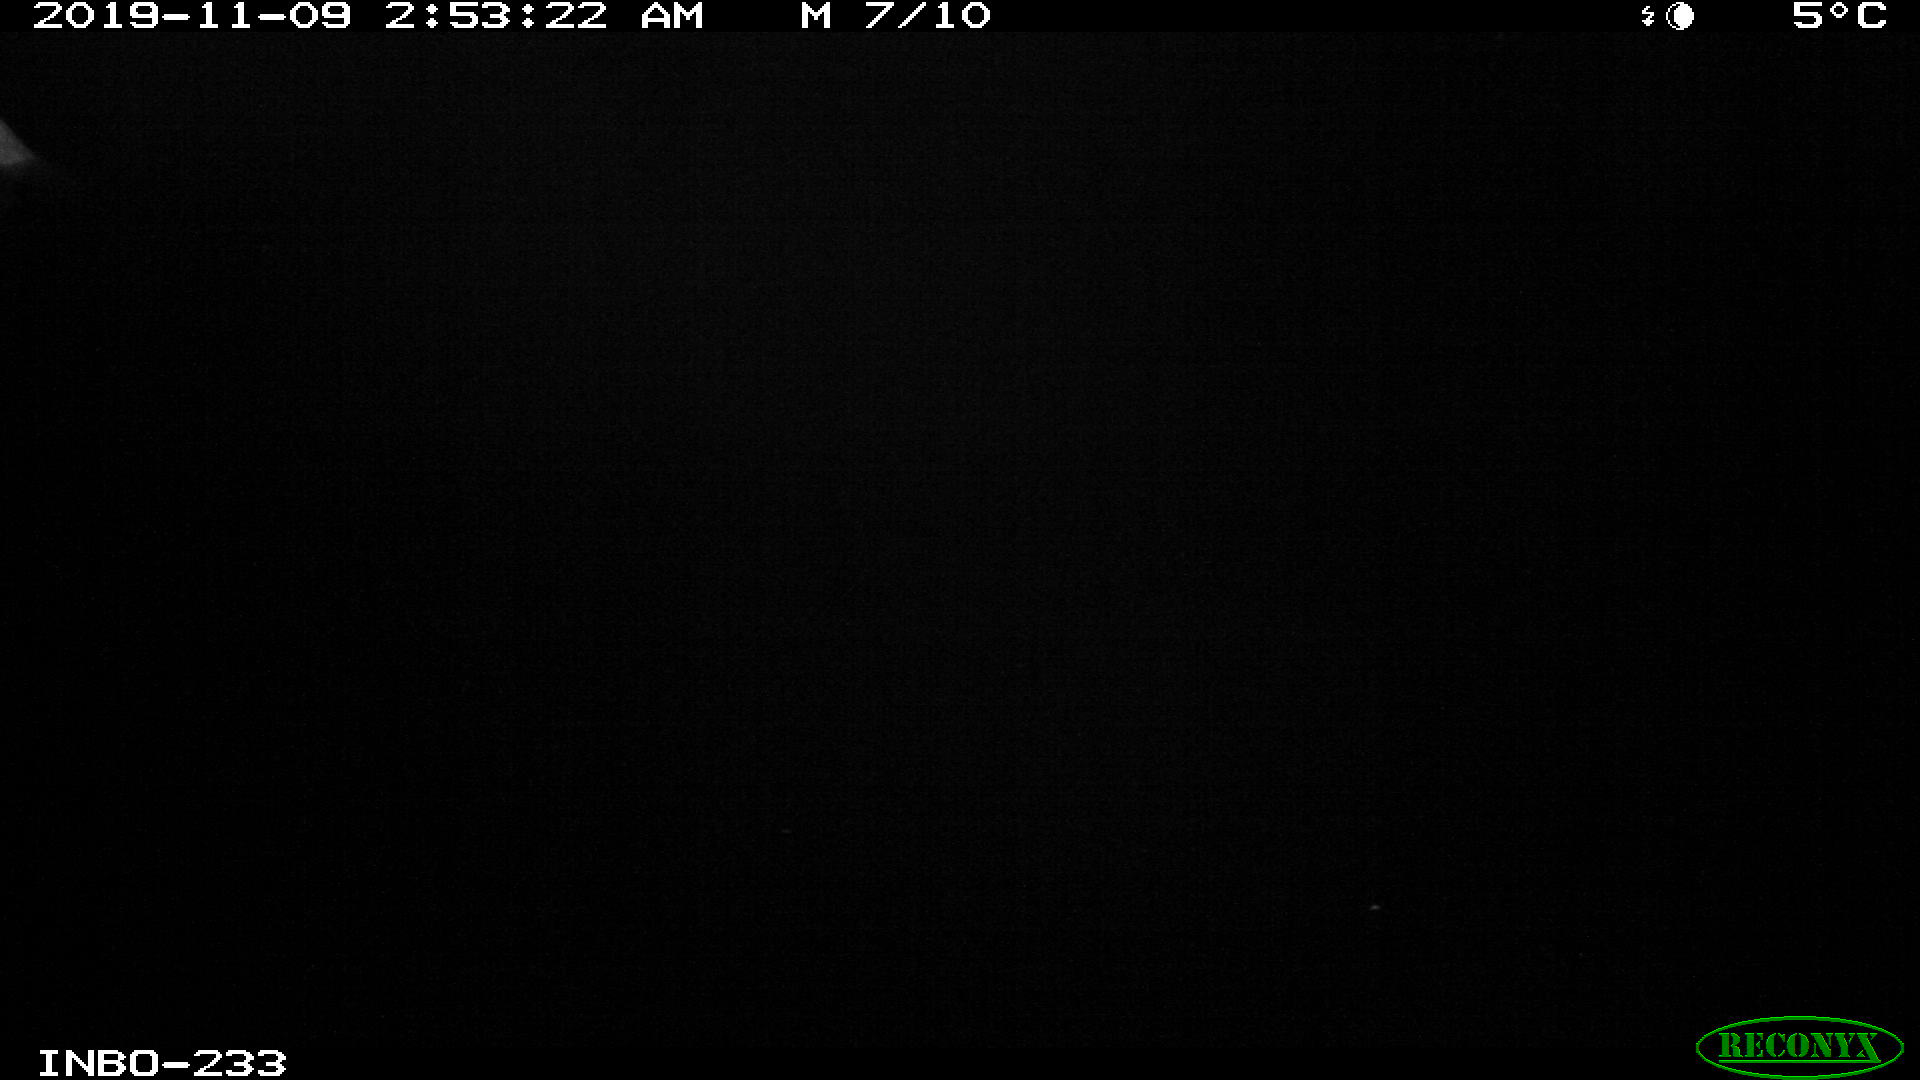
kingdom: Animalia
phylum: Chordata
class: Aves
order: Anseriformes
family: Anatidae
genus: Anas
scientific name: Anas platyrhynchos
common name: Mallard
